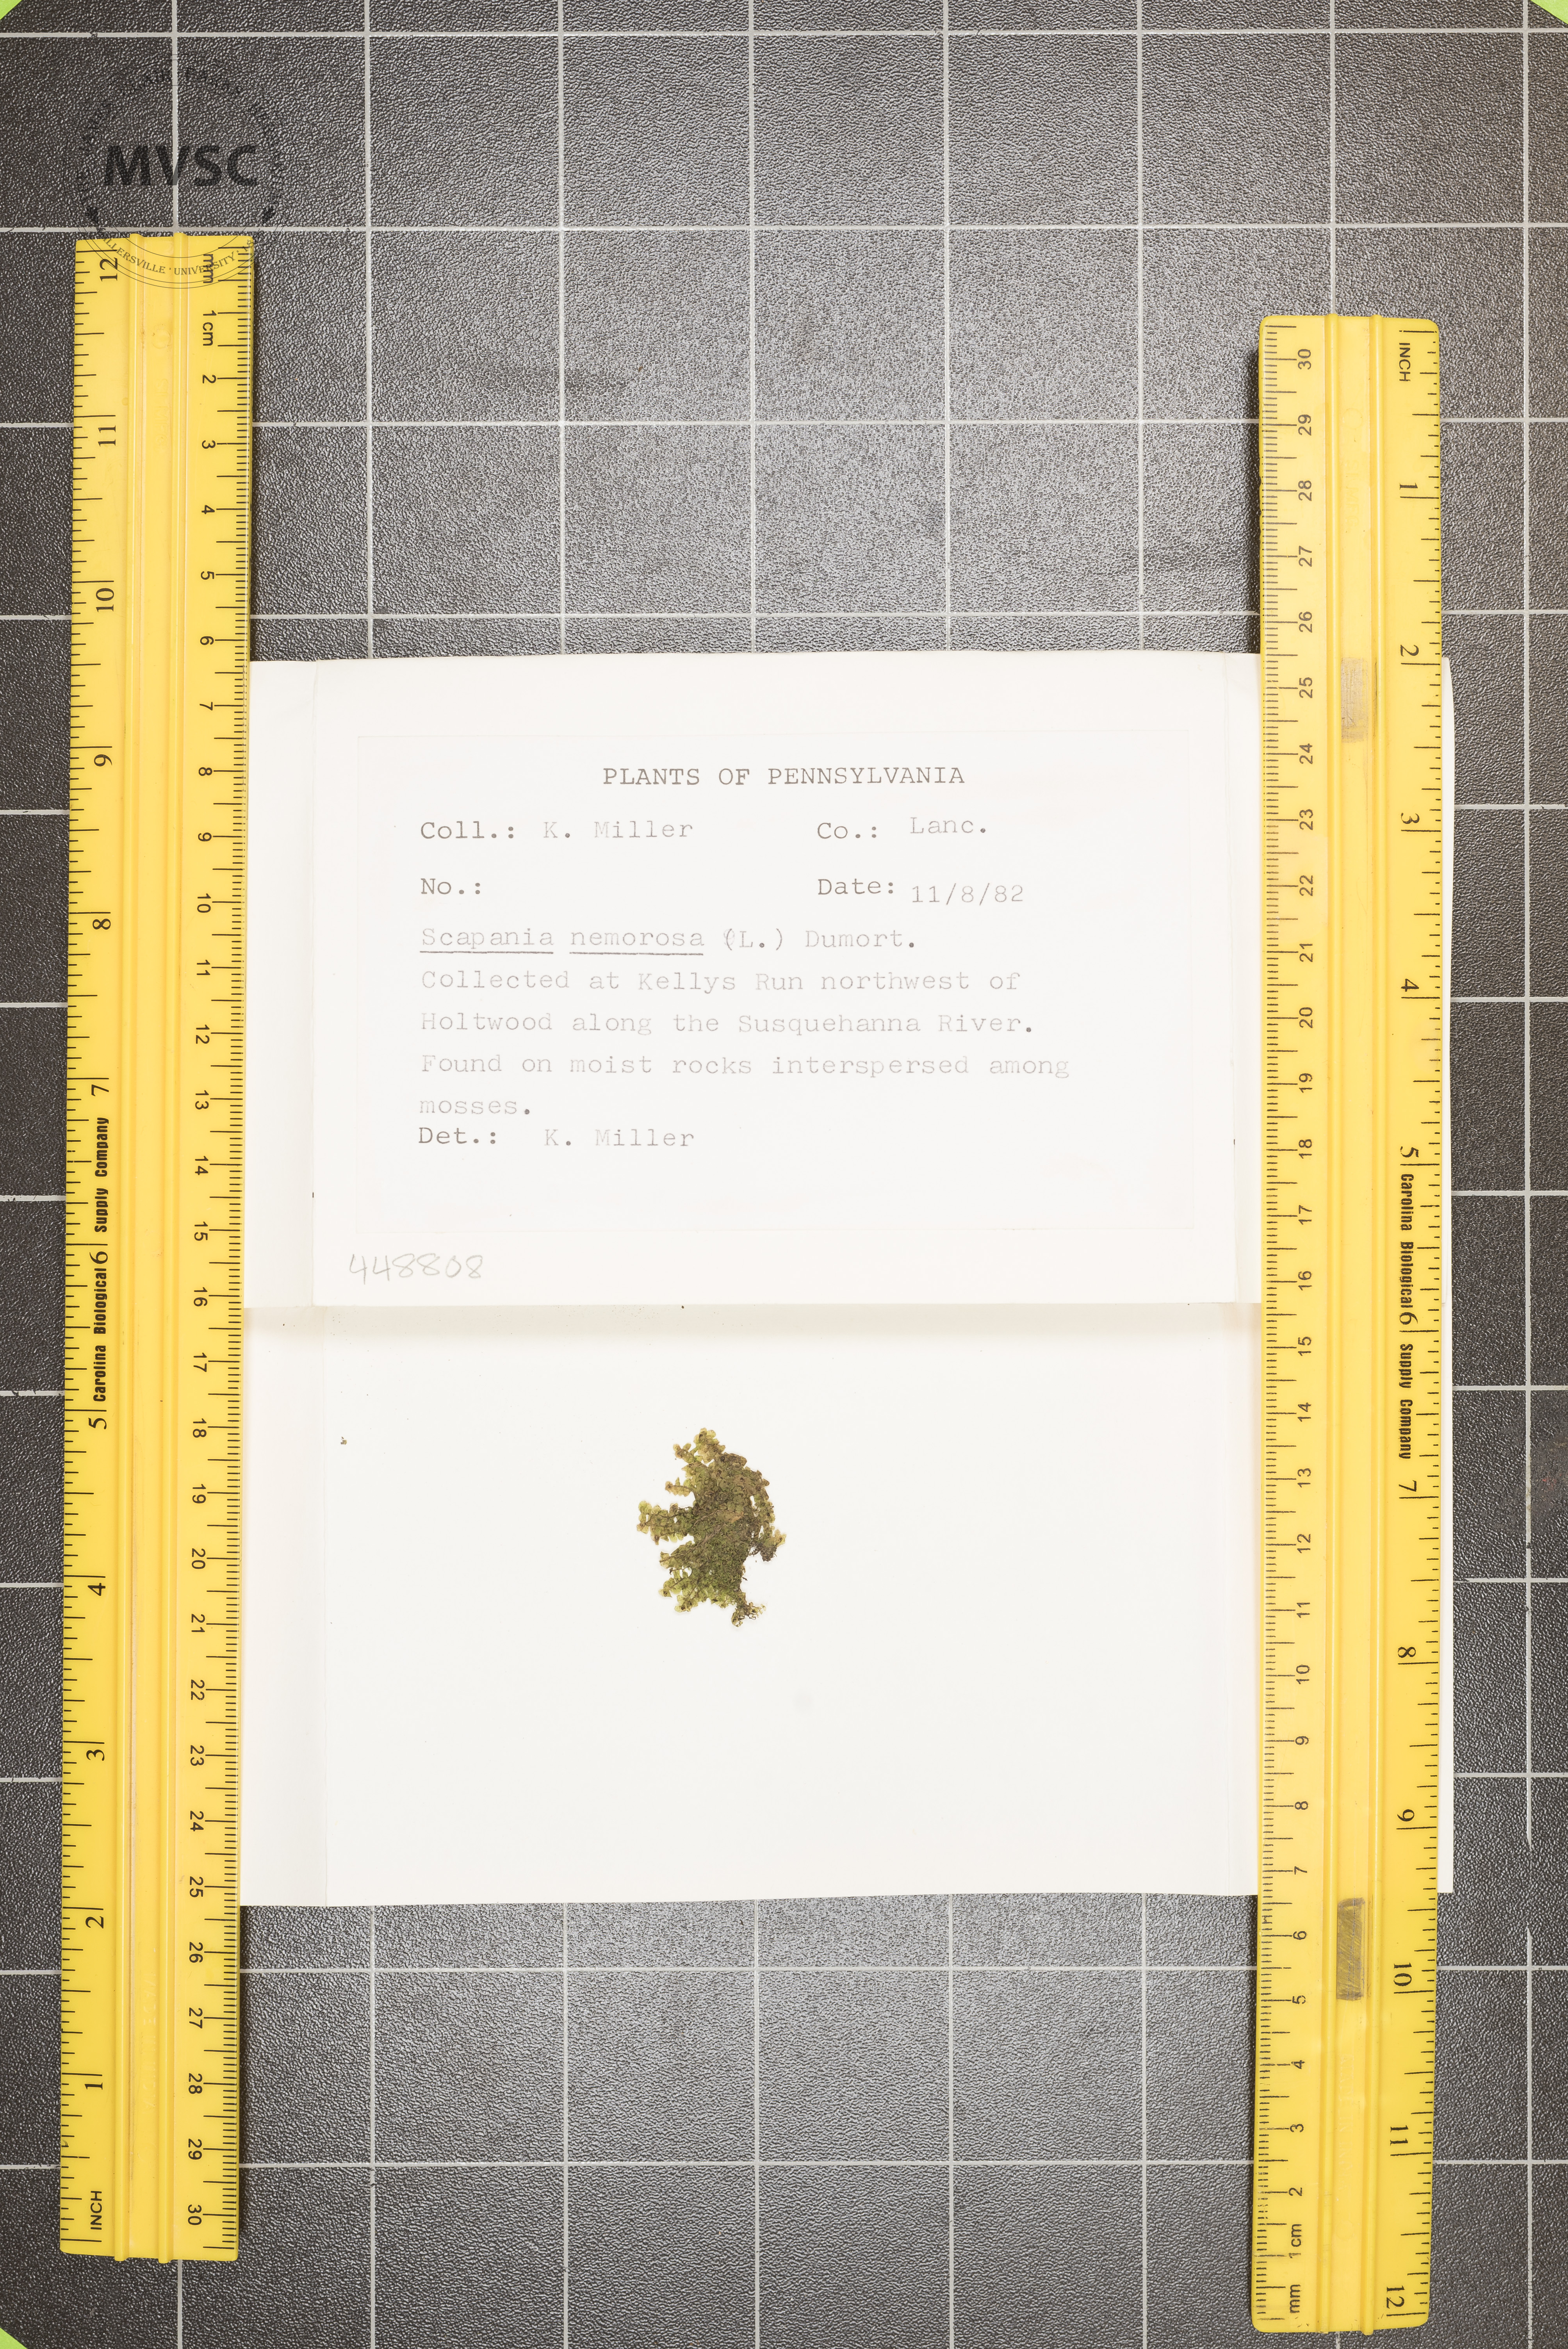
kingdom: Plantae
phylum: Marchantiophyta
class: Jungermanniopsida
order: Jungermanniales
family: Scapaniaceae
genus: Scapania
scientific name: Scapania nemorea
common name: Grove earwort
